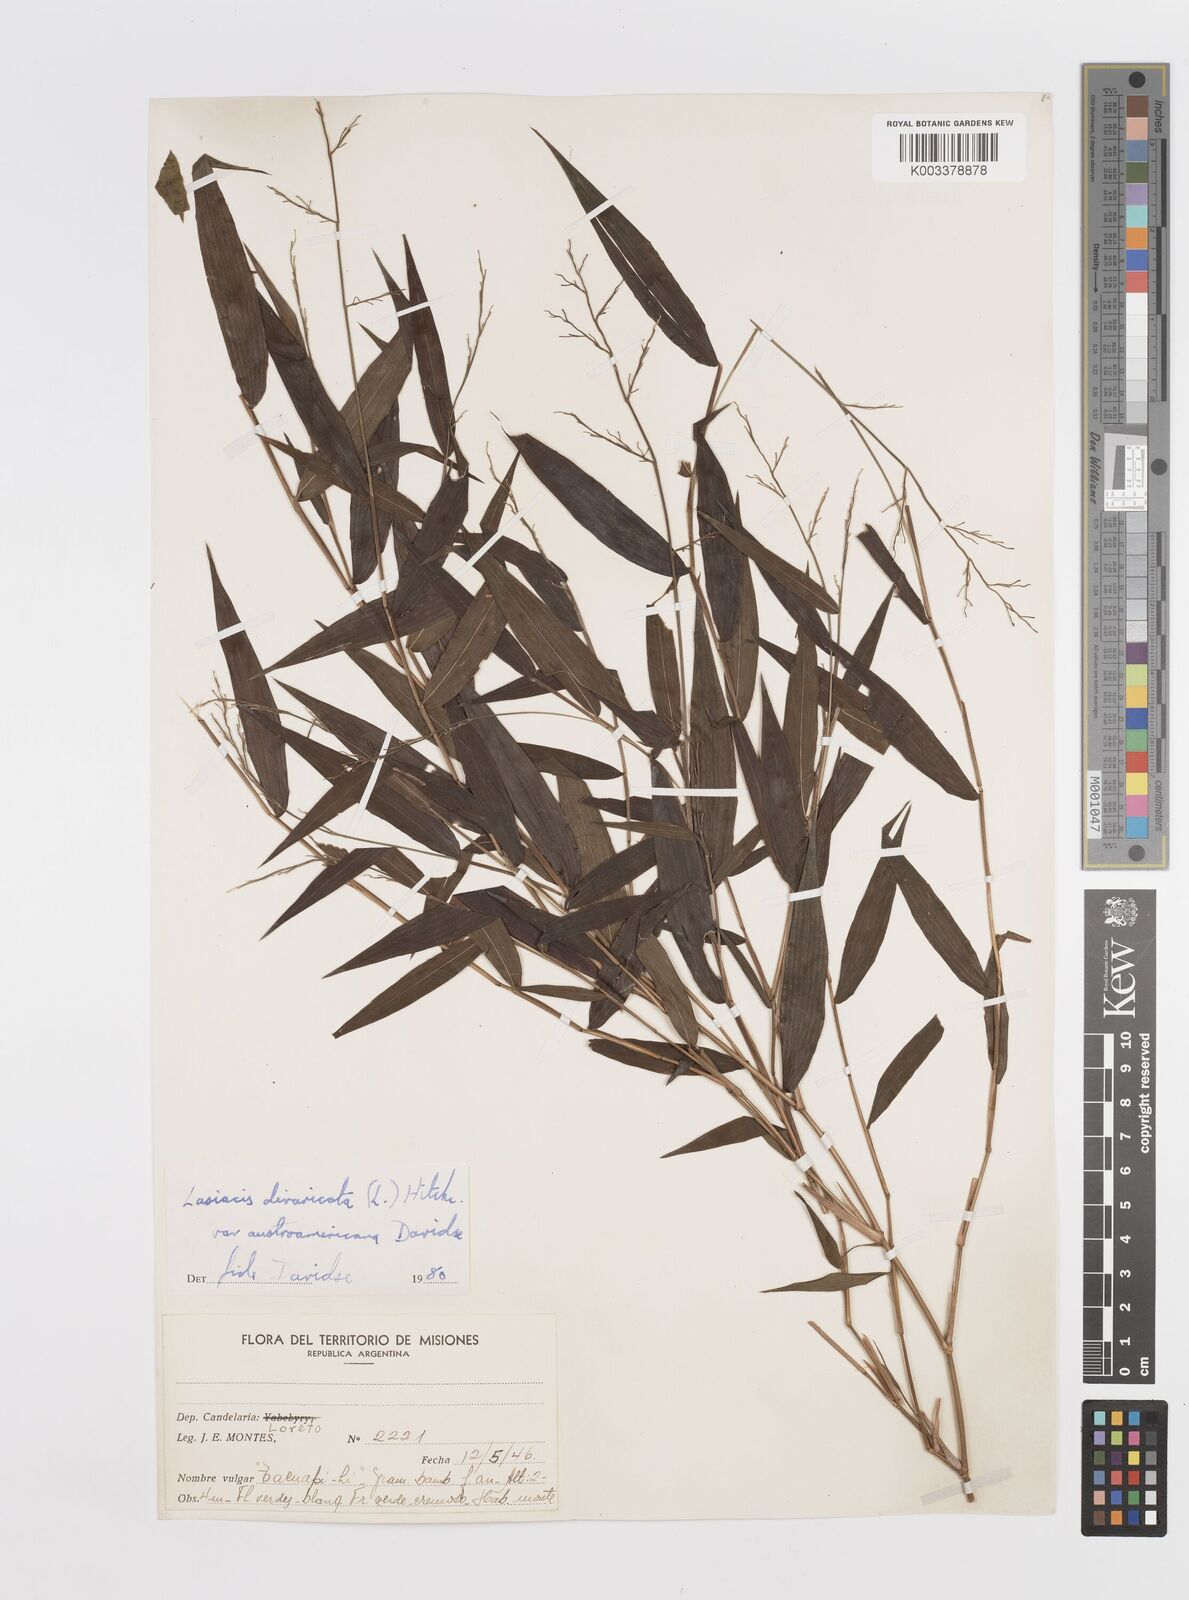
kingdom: Plantae
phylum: Tracheophyta
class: Liliopsida
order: Poales
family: Poaceae
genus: Lasiacis
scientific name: Lasiacis divaricata
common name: Smallcane
